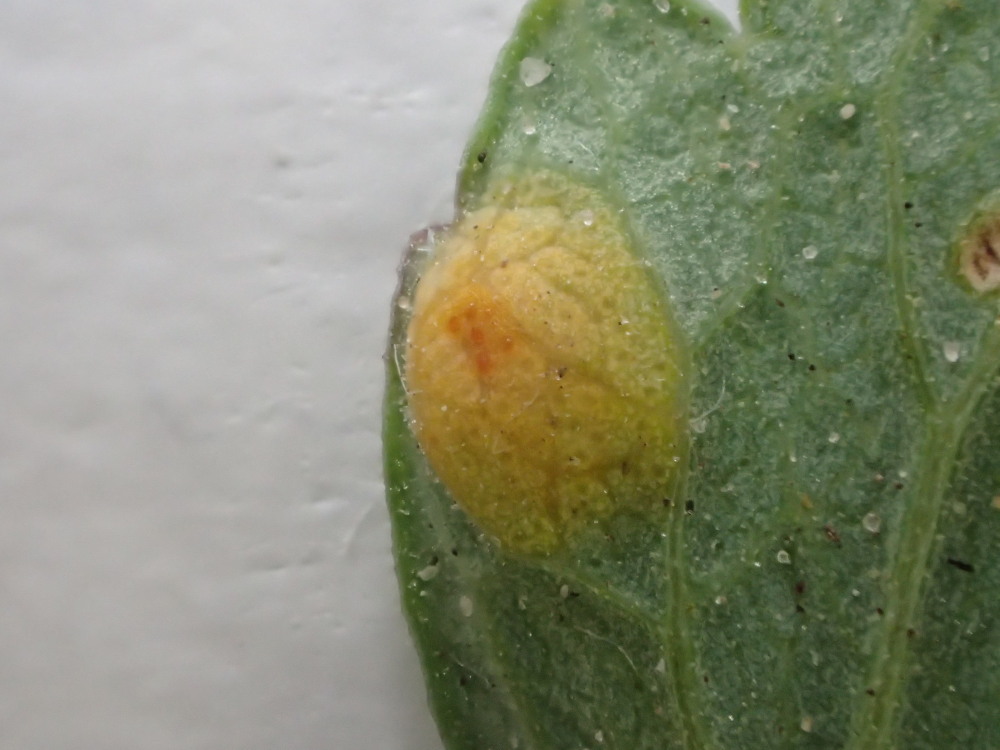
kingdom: Fungi
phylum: Basidiomycota
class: Pucciniomycetes
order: Pucciniales
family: Pucciniaceae
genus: Puccinia
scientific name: Puccinia recondita
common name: Brown rust of wheat
